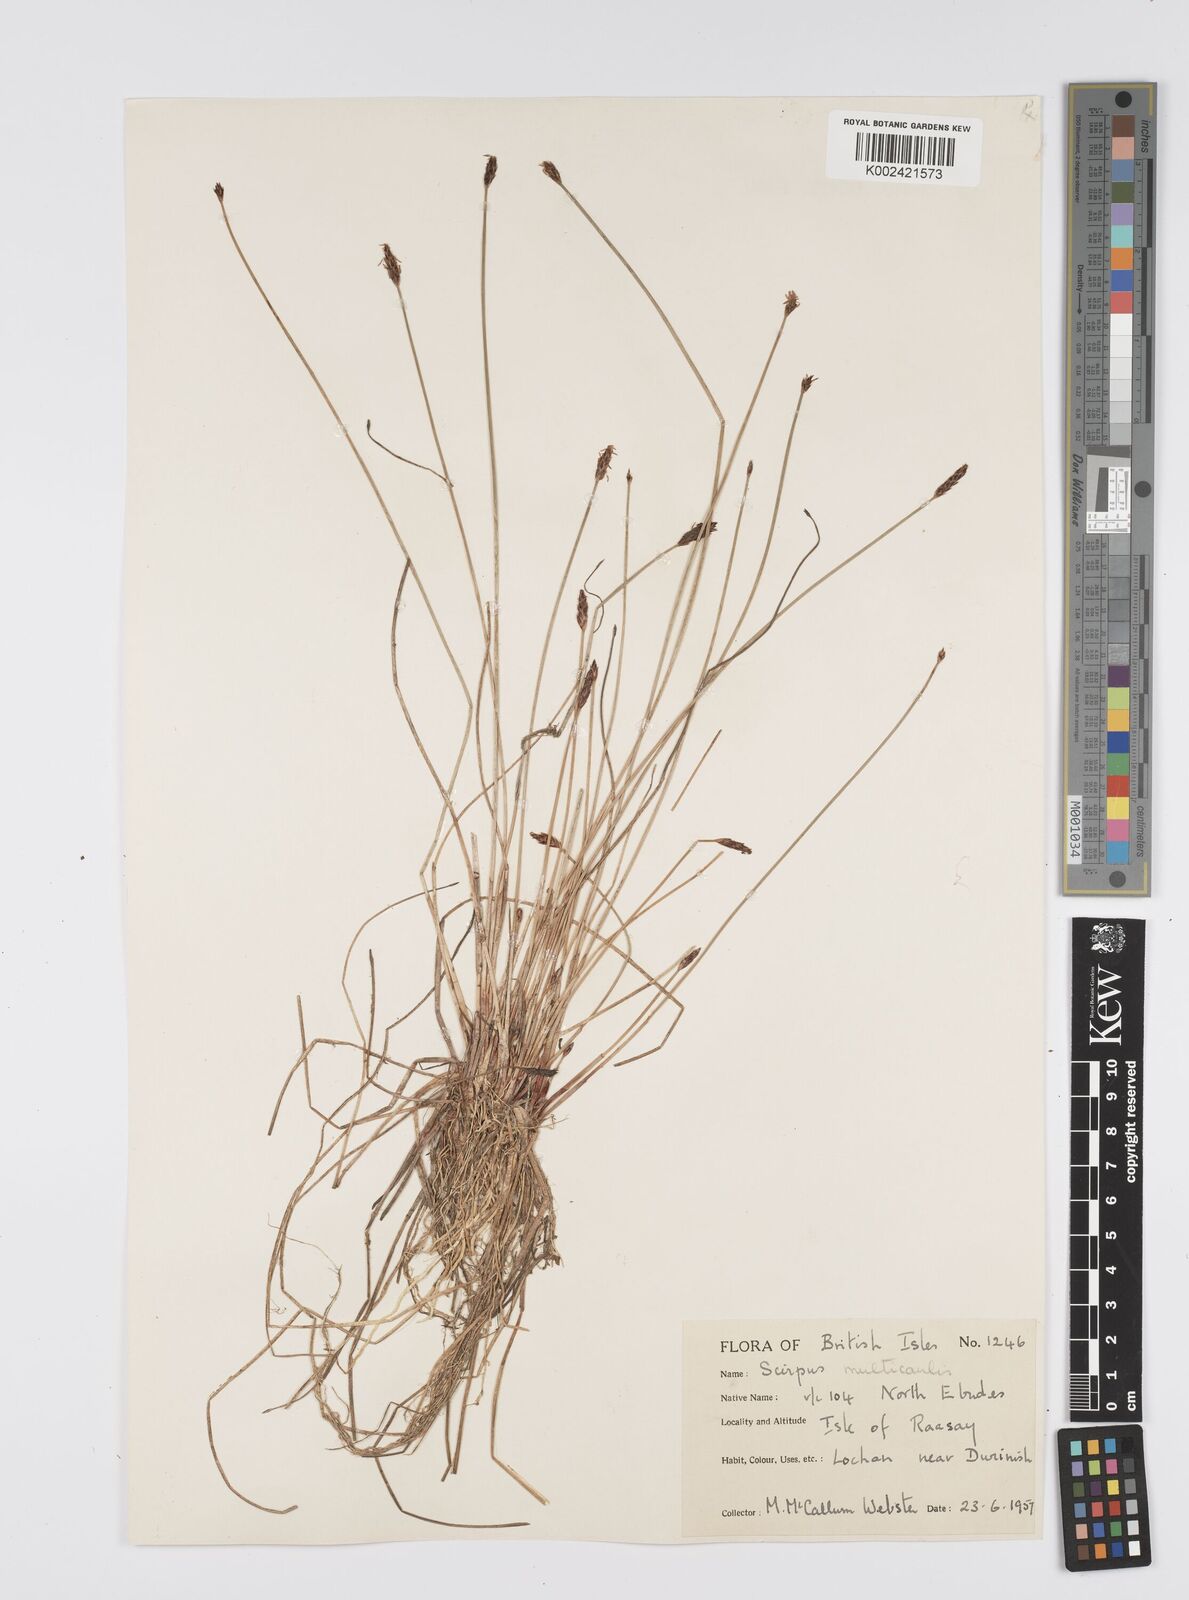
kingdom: Plantae
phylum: Tracheophyta
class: Liliopsida
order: Poales
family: Cyperaceae
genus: Eleocharis
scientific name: Eleocharis multicaulis
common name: Many-stalked spike-rush
